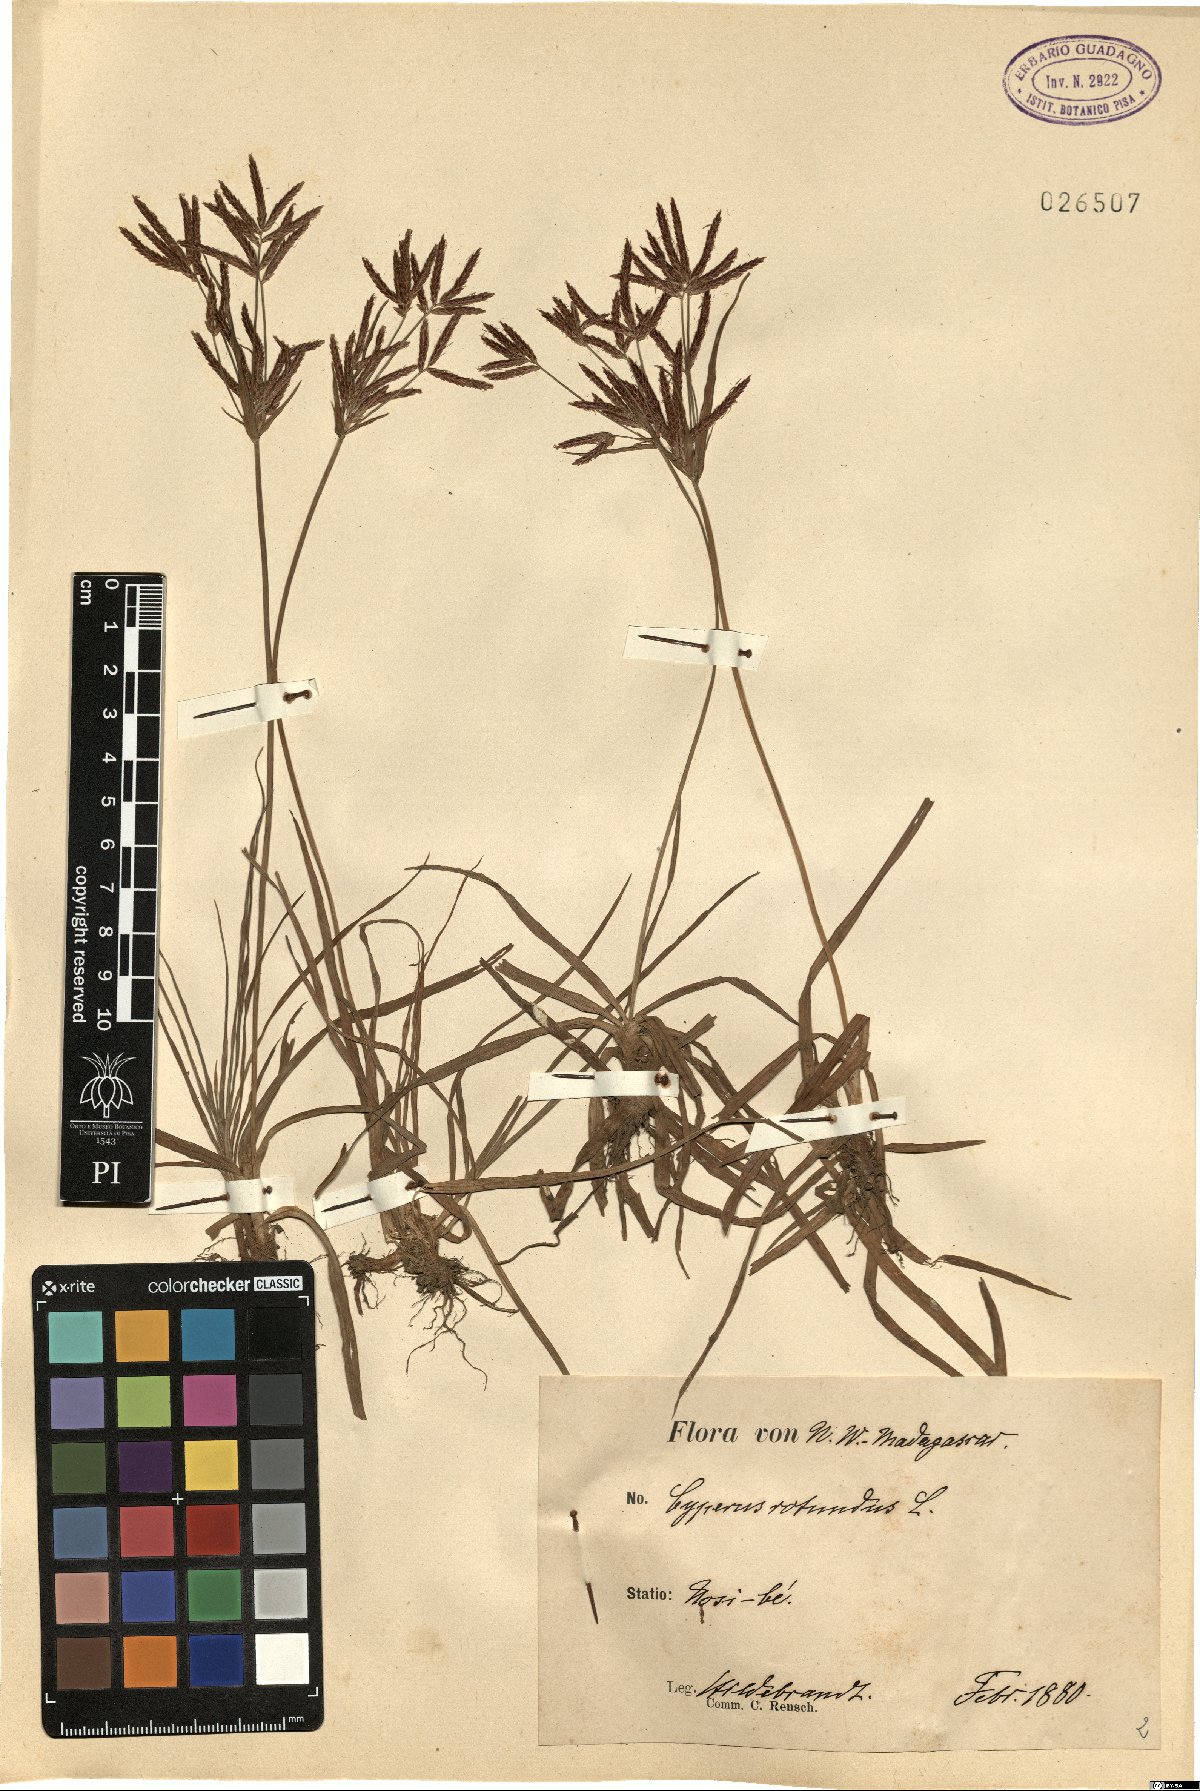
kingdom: Plantae
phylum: Tracheophyta
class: Liliopsida
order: Poales
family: Cyperaceae
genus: Cyperus
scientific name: Cyperus rotundus
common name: Nutgrass
